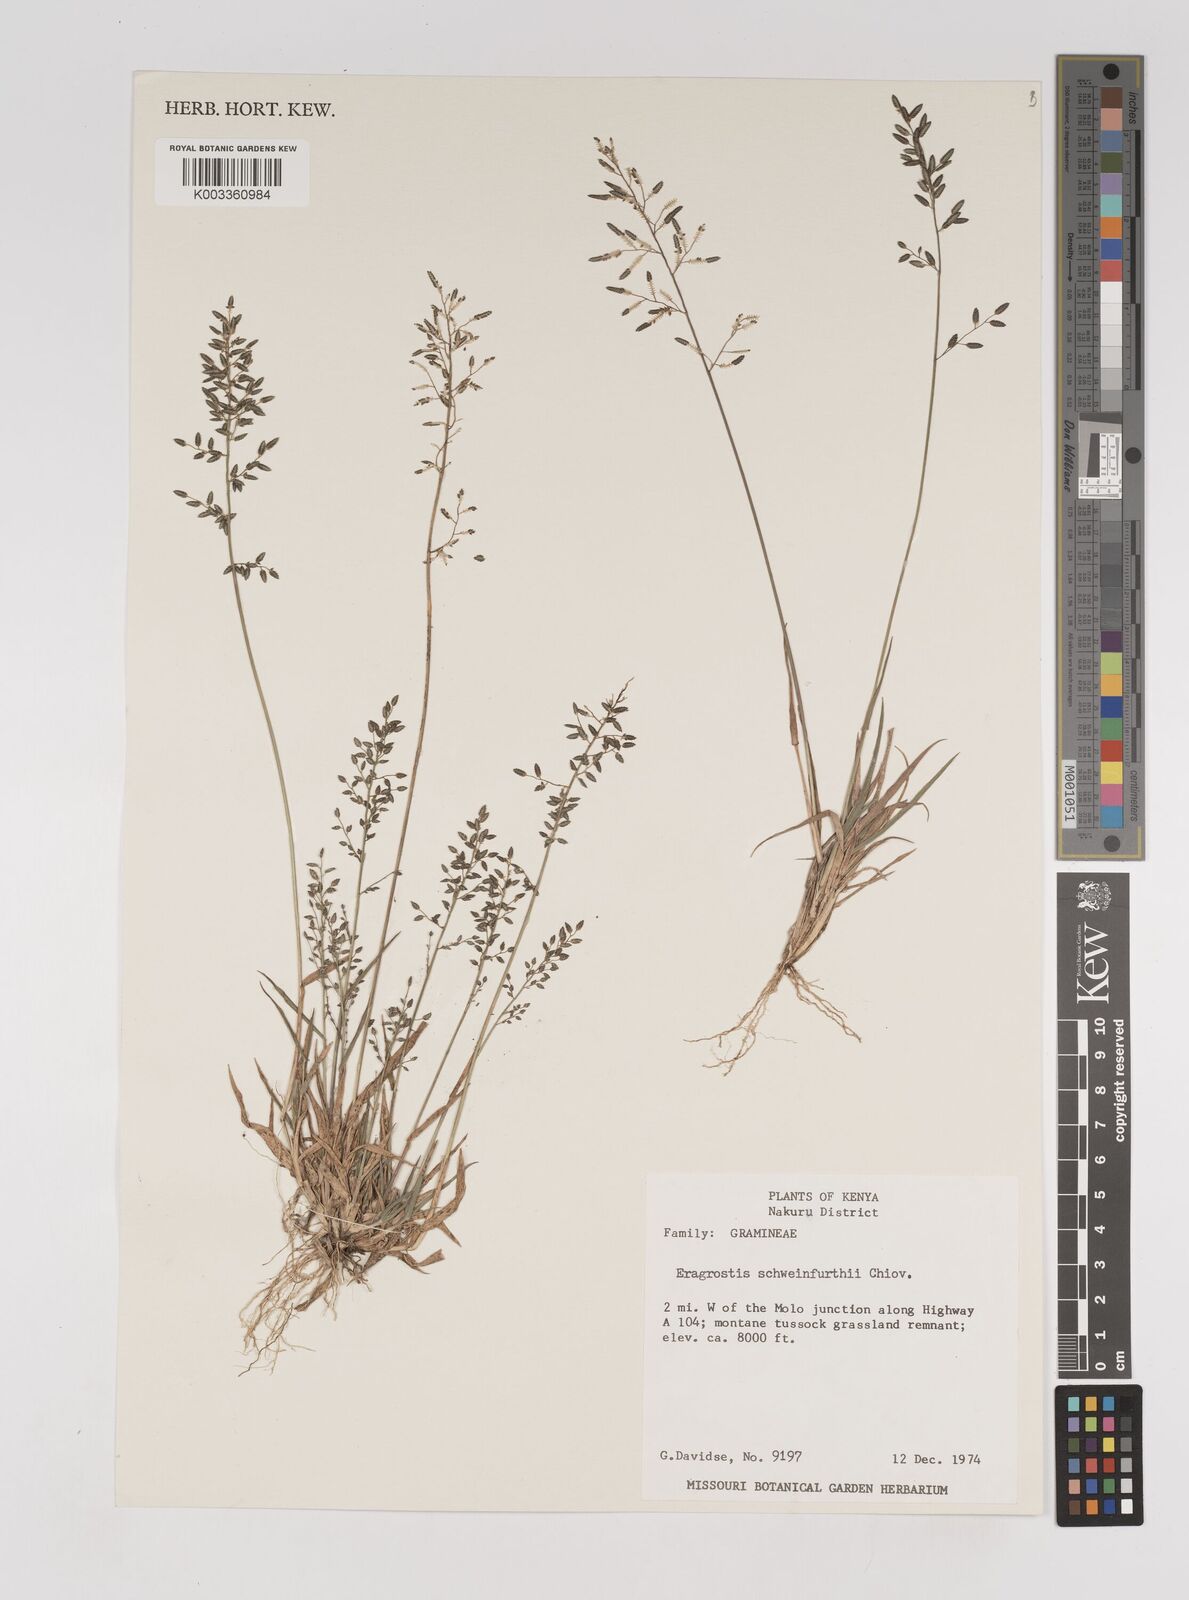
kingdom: Plantae
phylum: Tracheophyta
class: Liliopsida
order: Poales
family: Poaceae
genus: Eragrostis
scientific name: Eragrostis schweinfurthii
